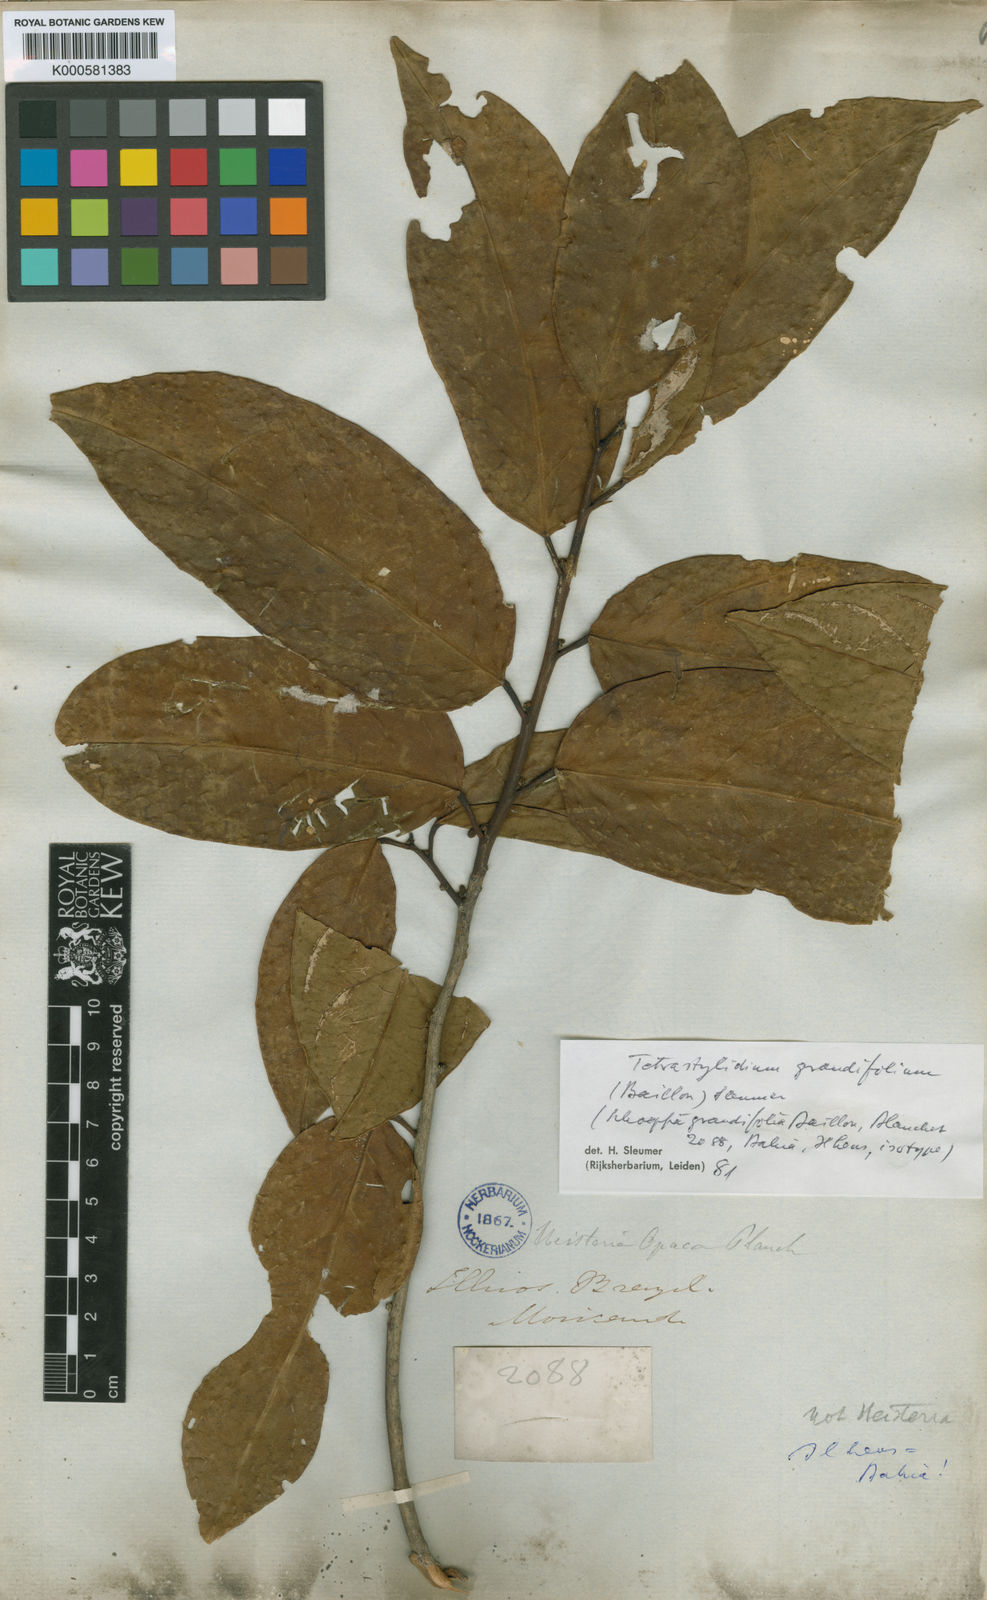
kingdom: Plantae
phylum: Tracheophyta
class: Magnoliopsida
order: Santalales
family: Strombosiaceae
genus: Tetrastylidium
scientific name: Tetrastylidium grandifolium
